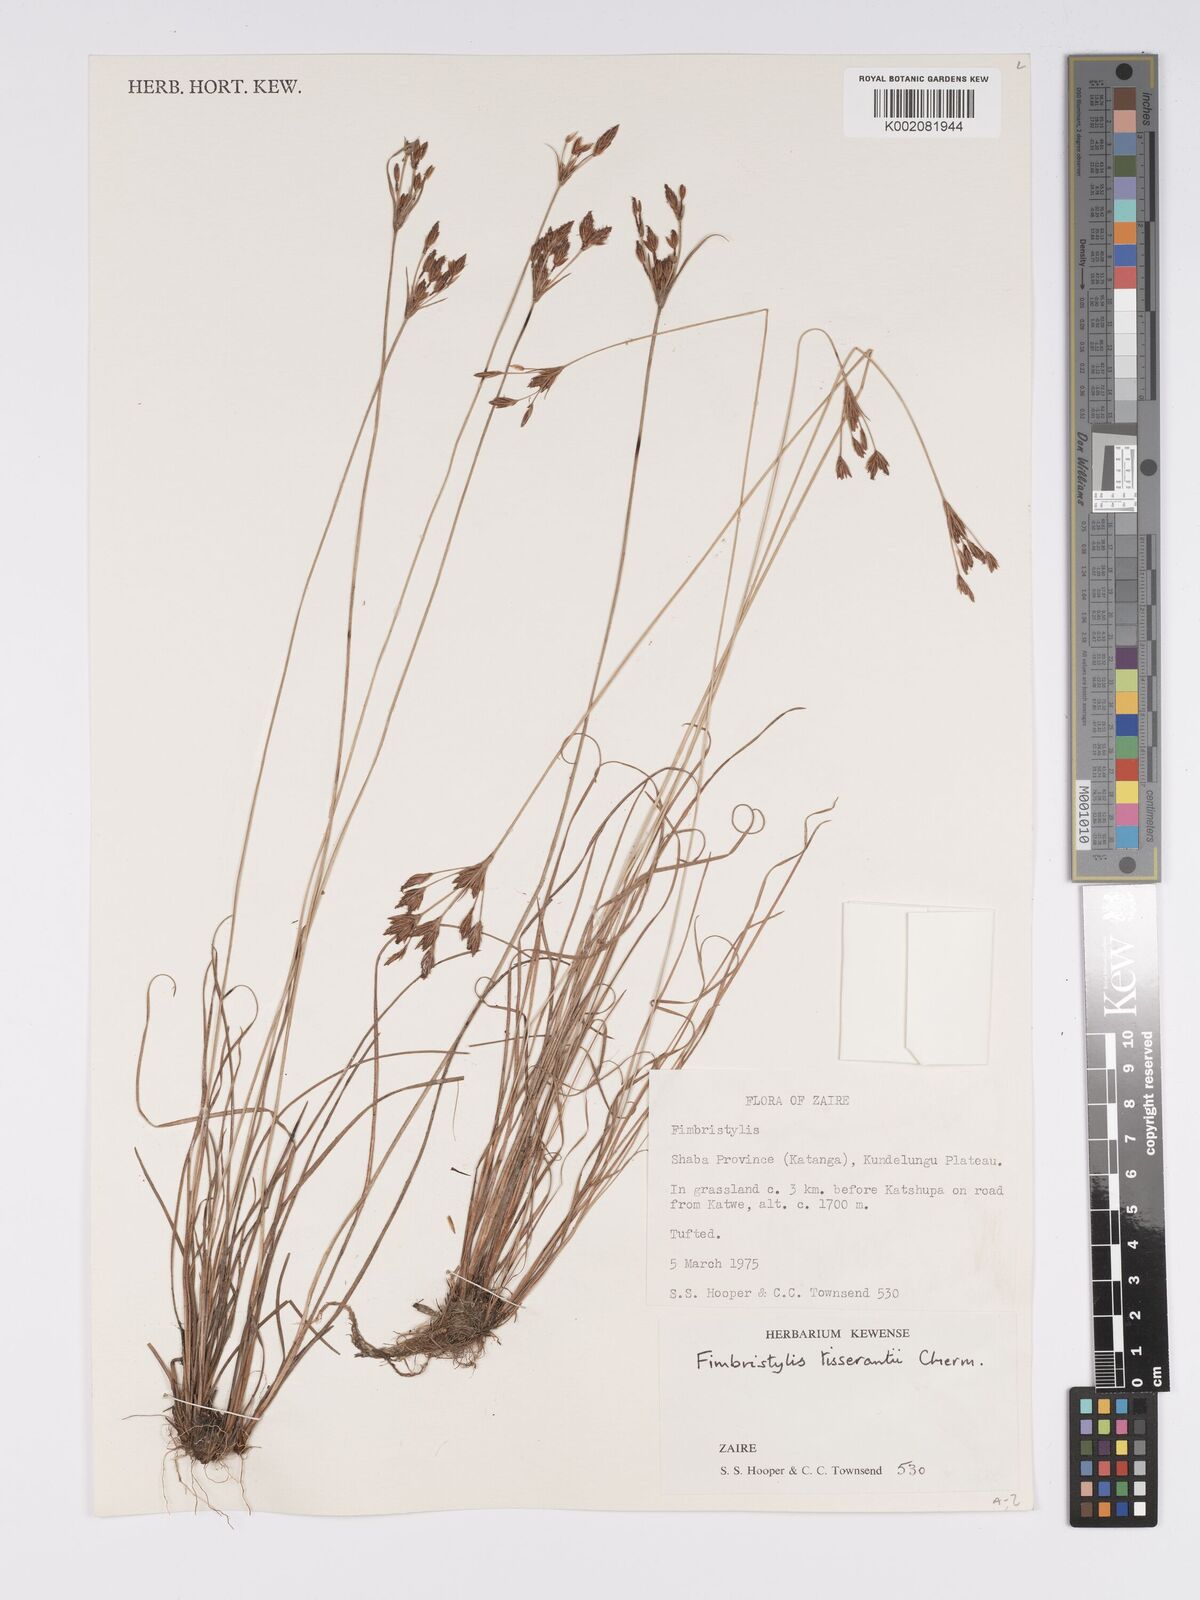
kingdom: Plantae
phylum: Tracheophyta
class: Liliopsida
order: Poales
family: Cyperaceae
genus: Bulbostylis
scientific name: Bulbostylis viridecarinata
